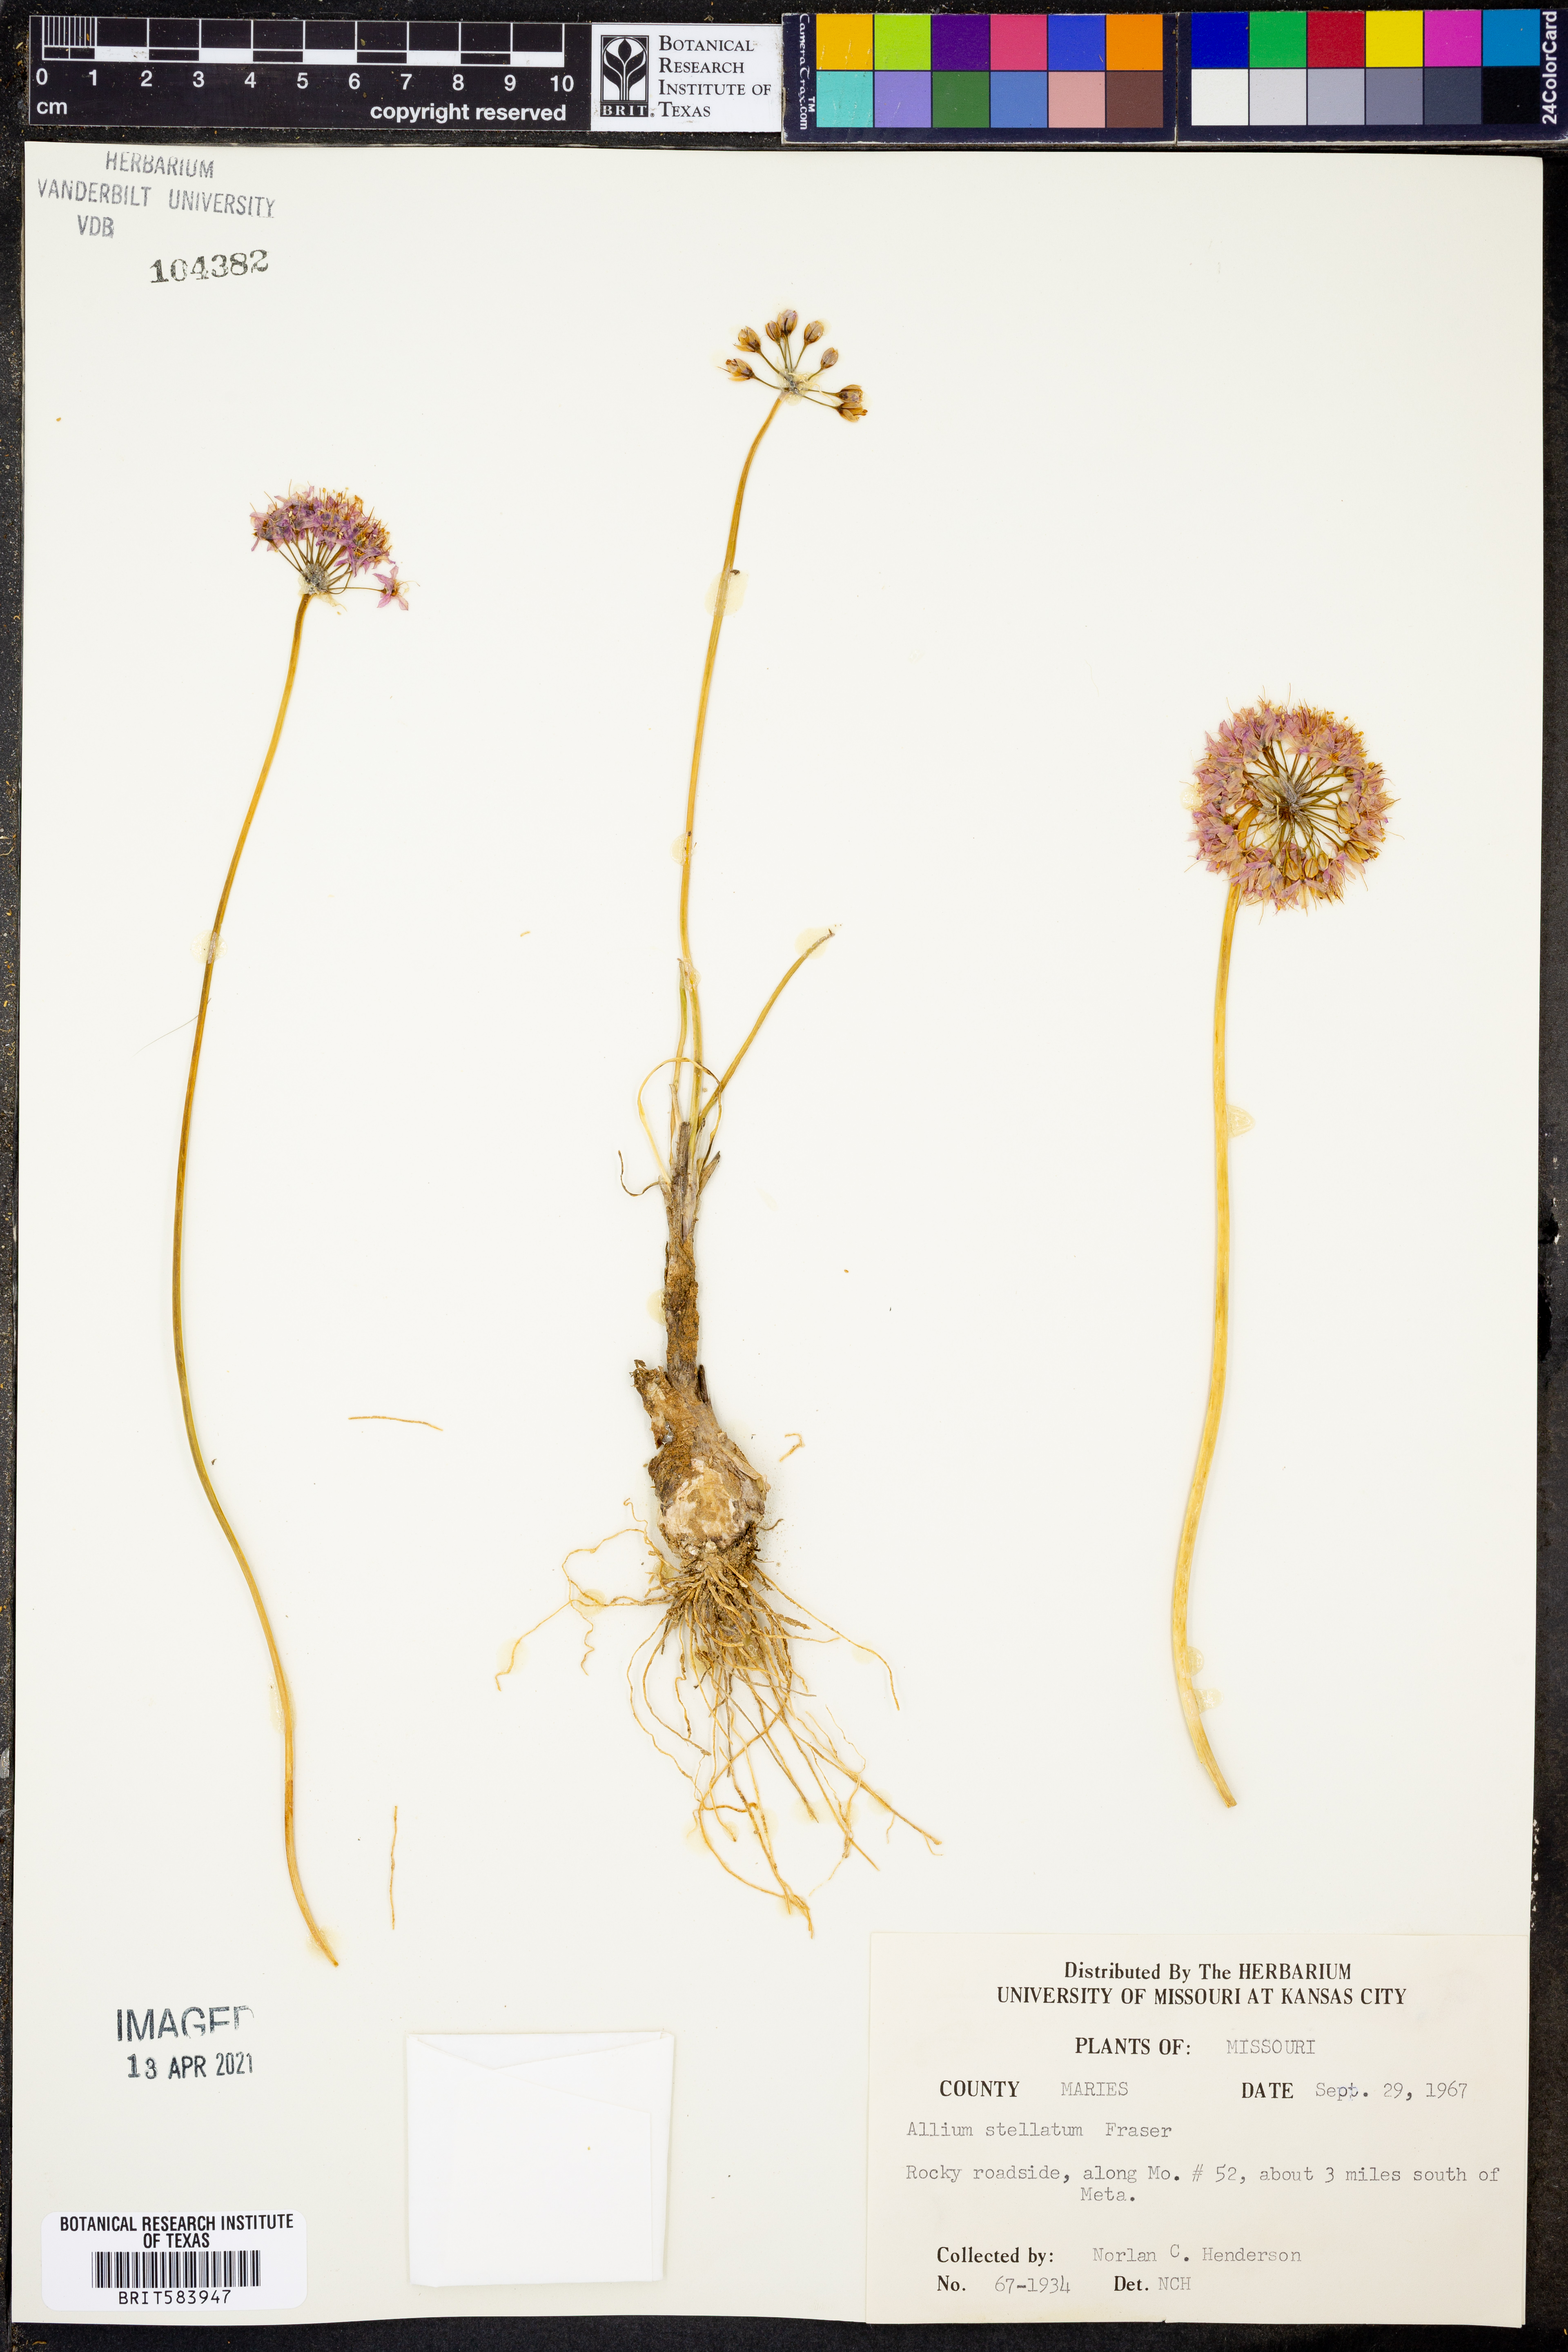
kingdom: Plantae
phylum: Tracheophyta
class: Liliopsida
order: Asparagales
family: Amaryllidaceae
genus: Allium
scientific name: Allium stellatum
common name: Autumn onion
